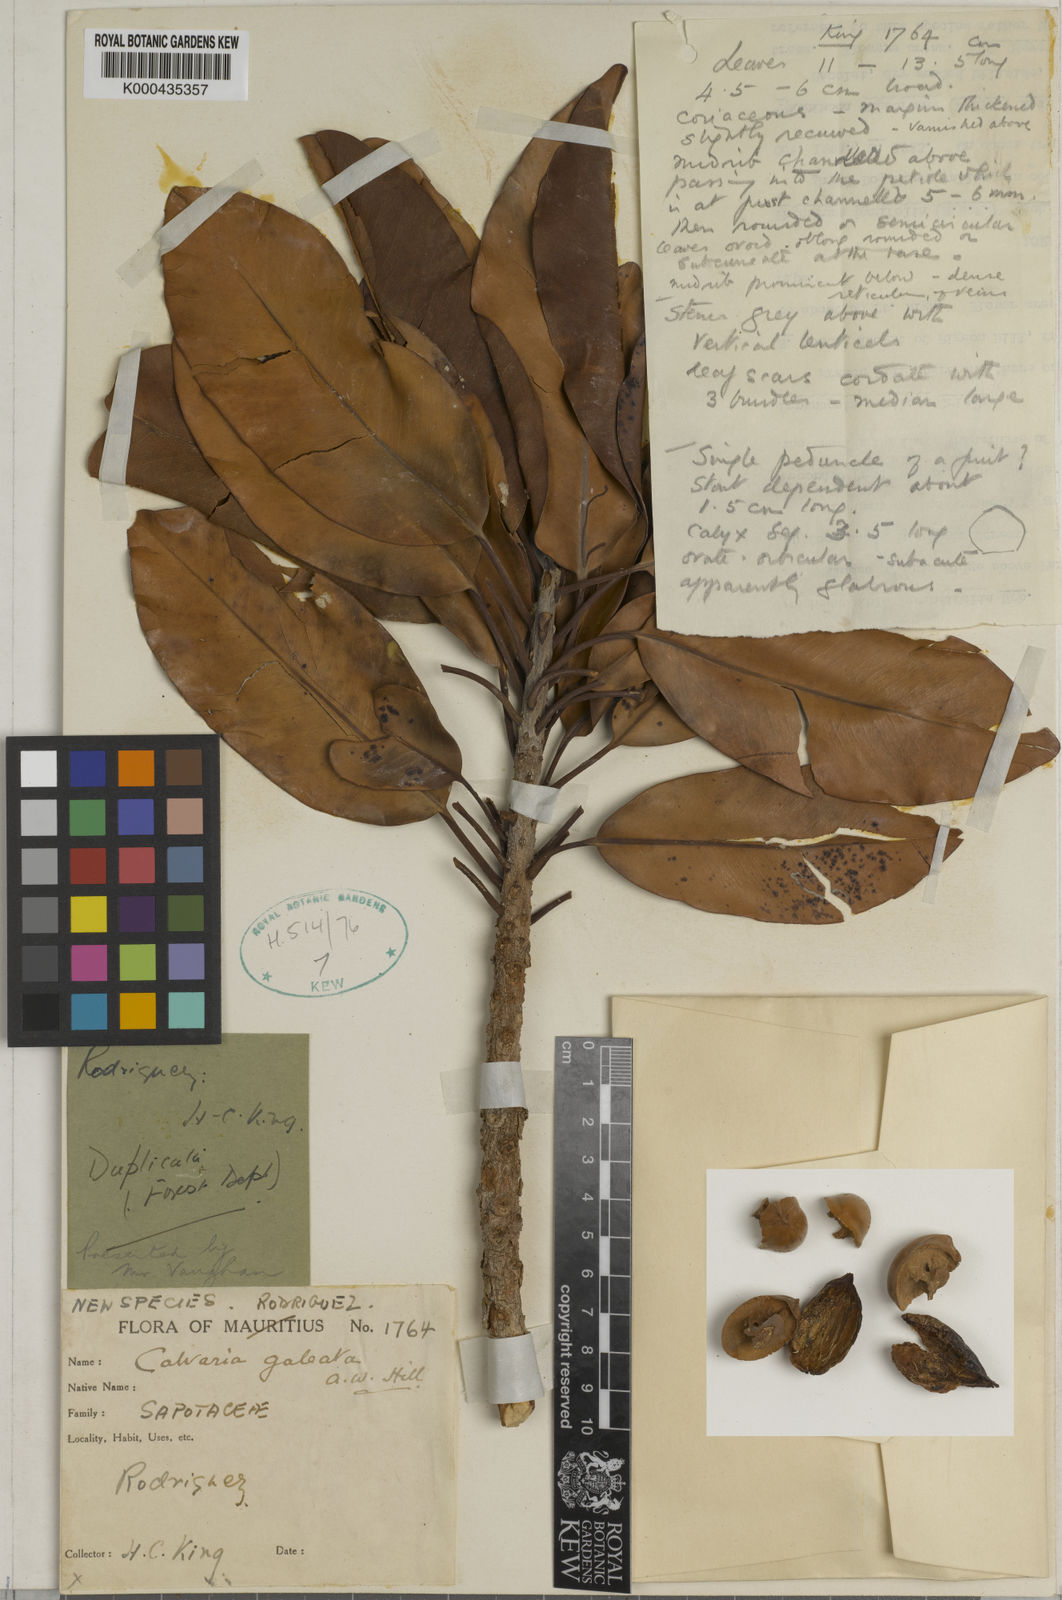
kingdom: Plantae
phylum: Tracheophyta
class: Magnoliopsida
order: Ericales
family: Sapotaceae
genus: Sideroxylon
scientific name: Sideroxylon galeatum
